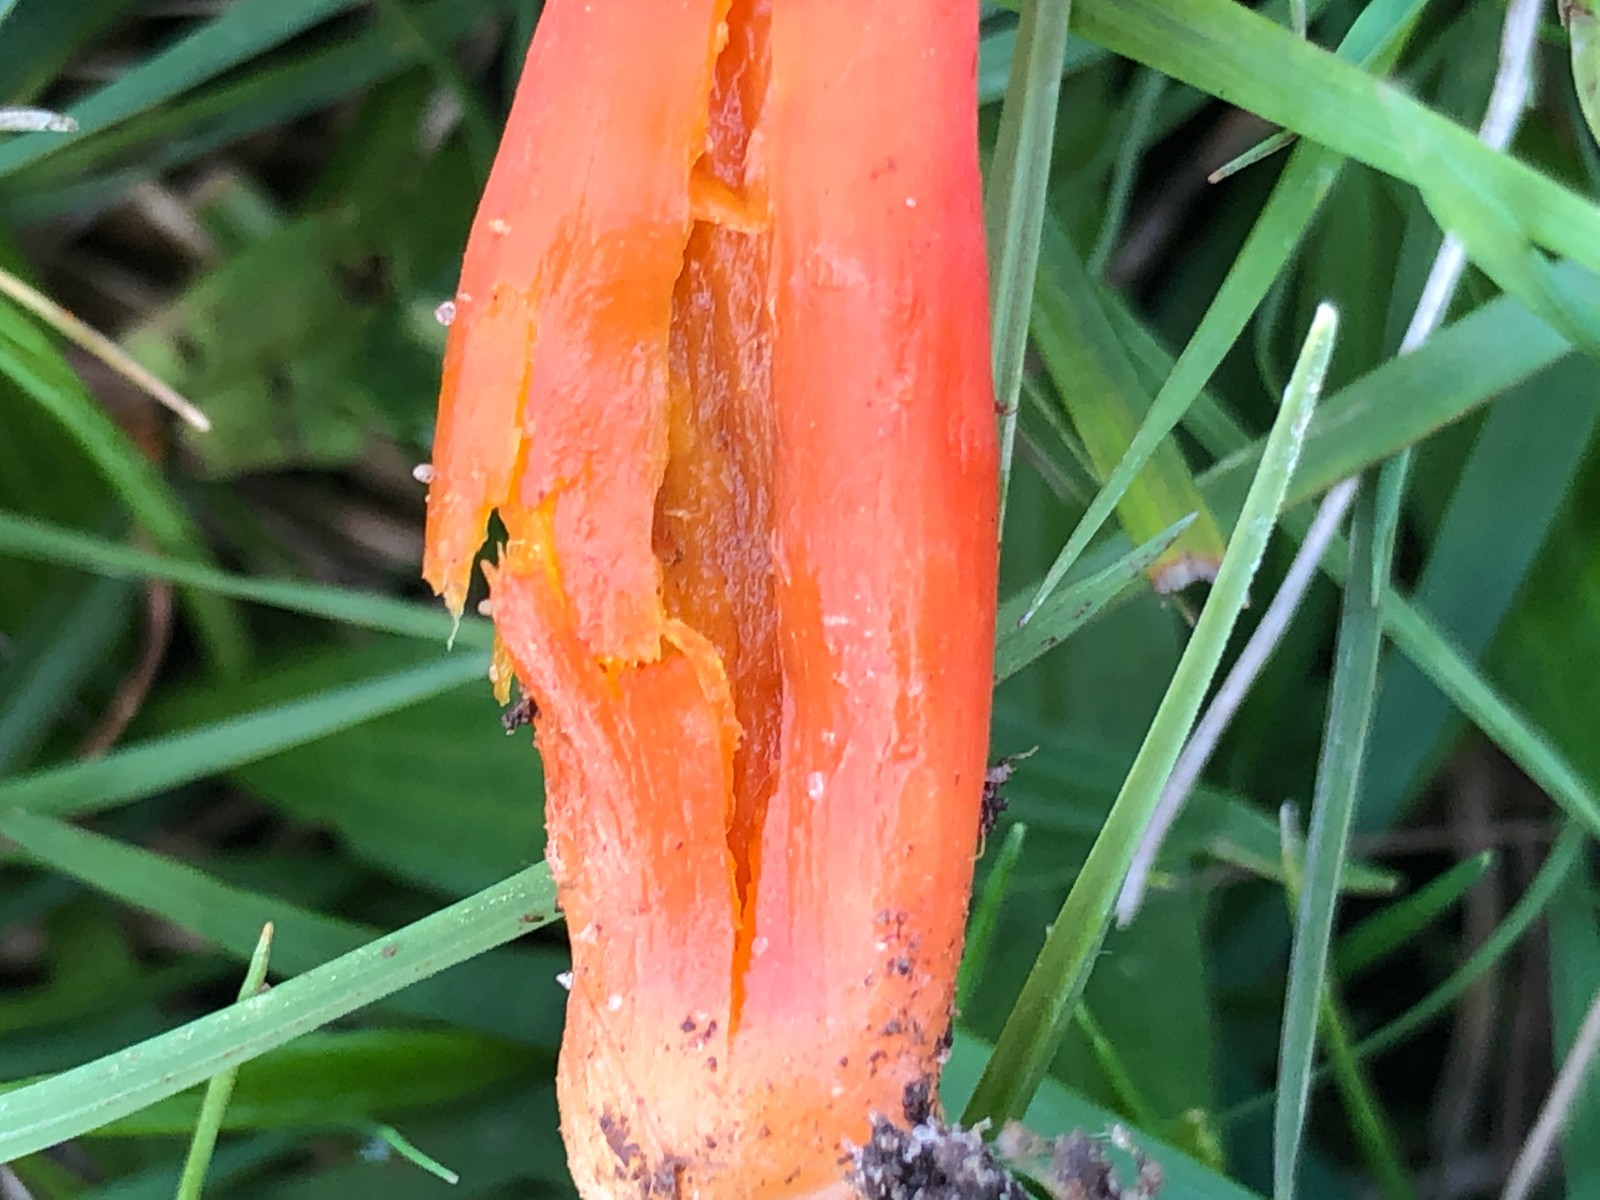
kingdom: Fungi
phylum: Basidiomycota
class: Agaricomycetes
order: Agaricales
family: Hygrophoraceae
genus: Hygrocybe
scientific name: Hygrocybe coccinea
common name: cinnober-vokshat
